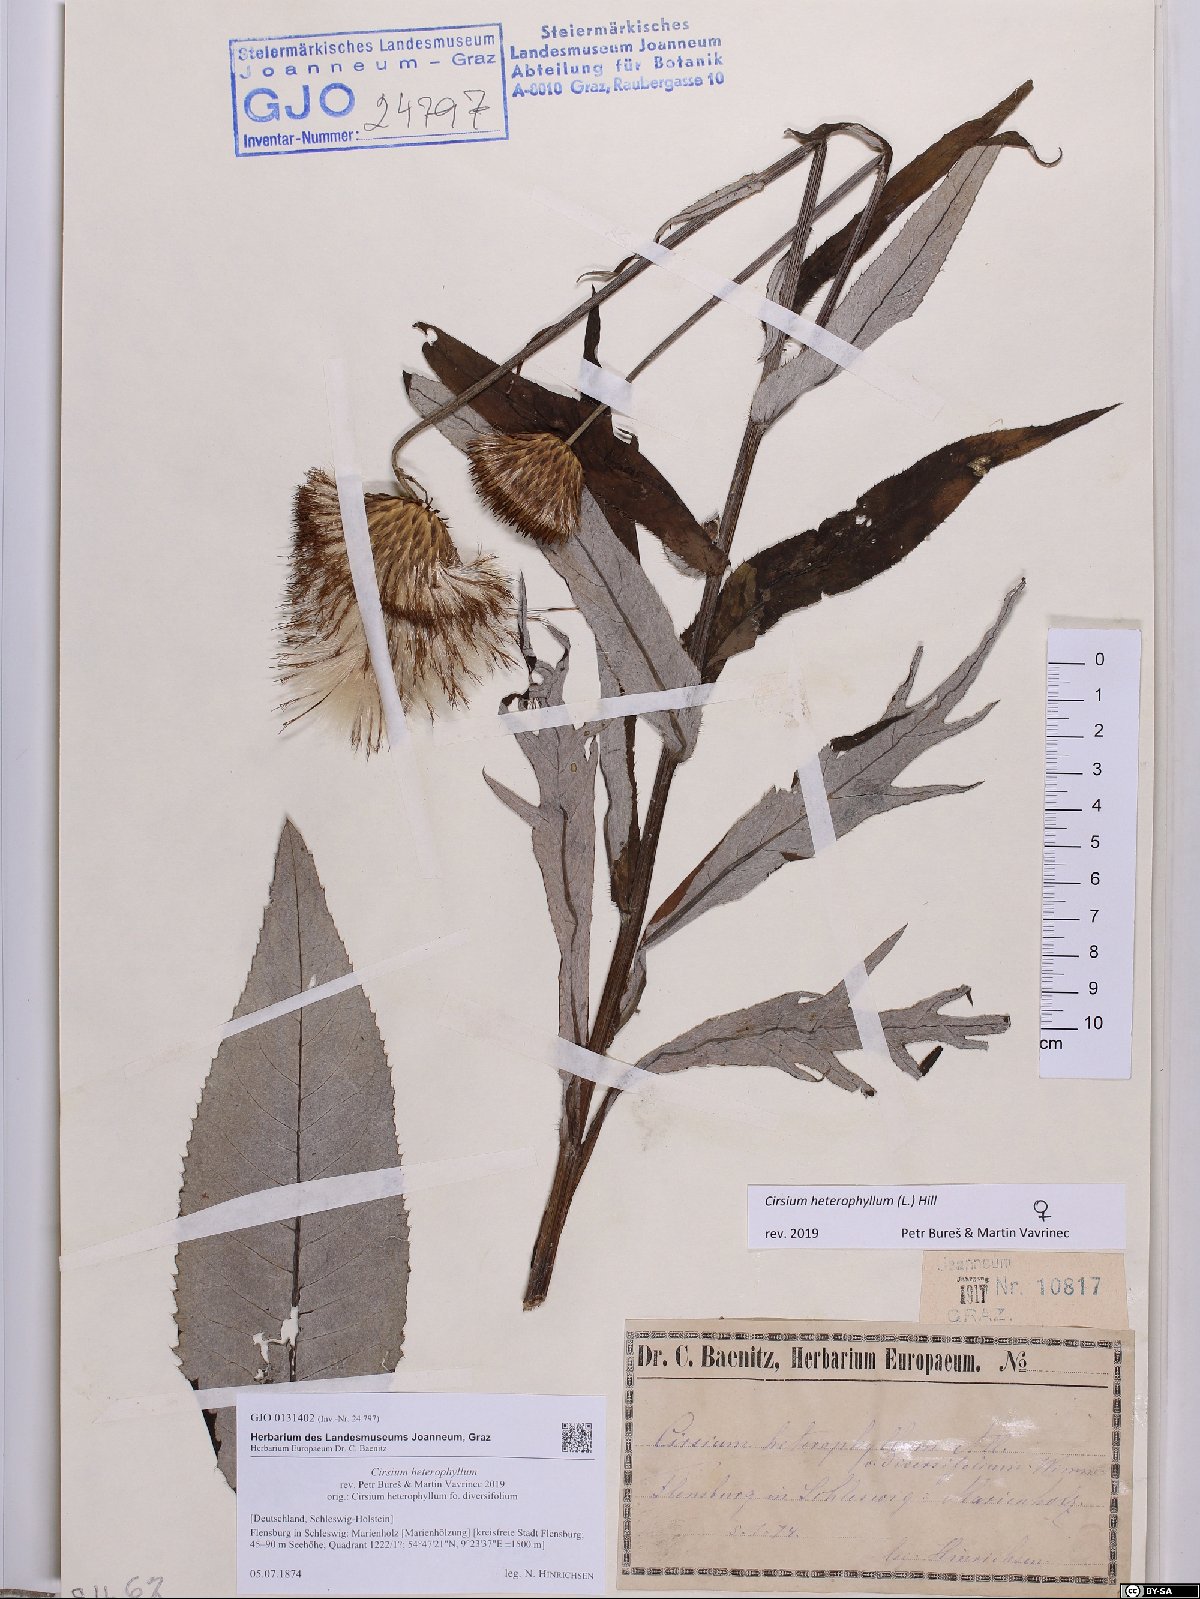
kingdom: Plantae
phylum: Tracheophyta
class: Magnoliopsida
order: Asterales
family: Asteraceae
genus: Cirsium
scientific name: Cirsium heterophyllum
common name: Melancholy thistle
